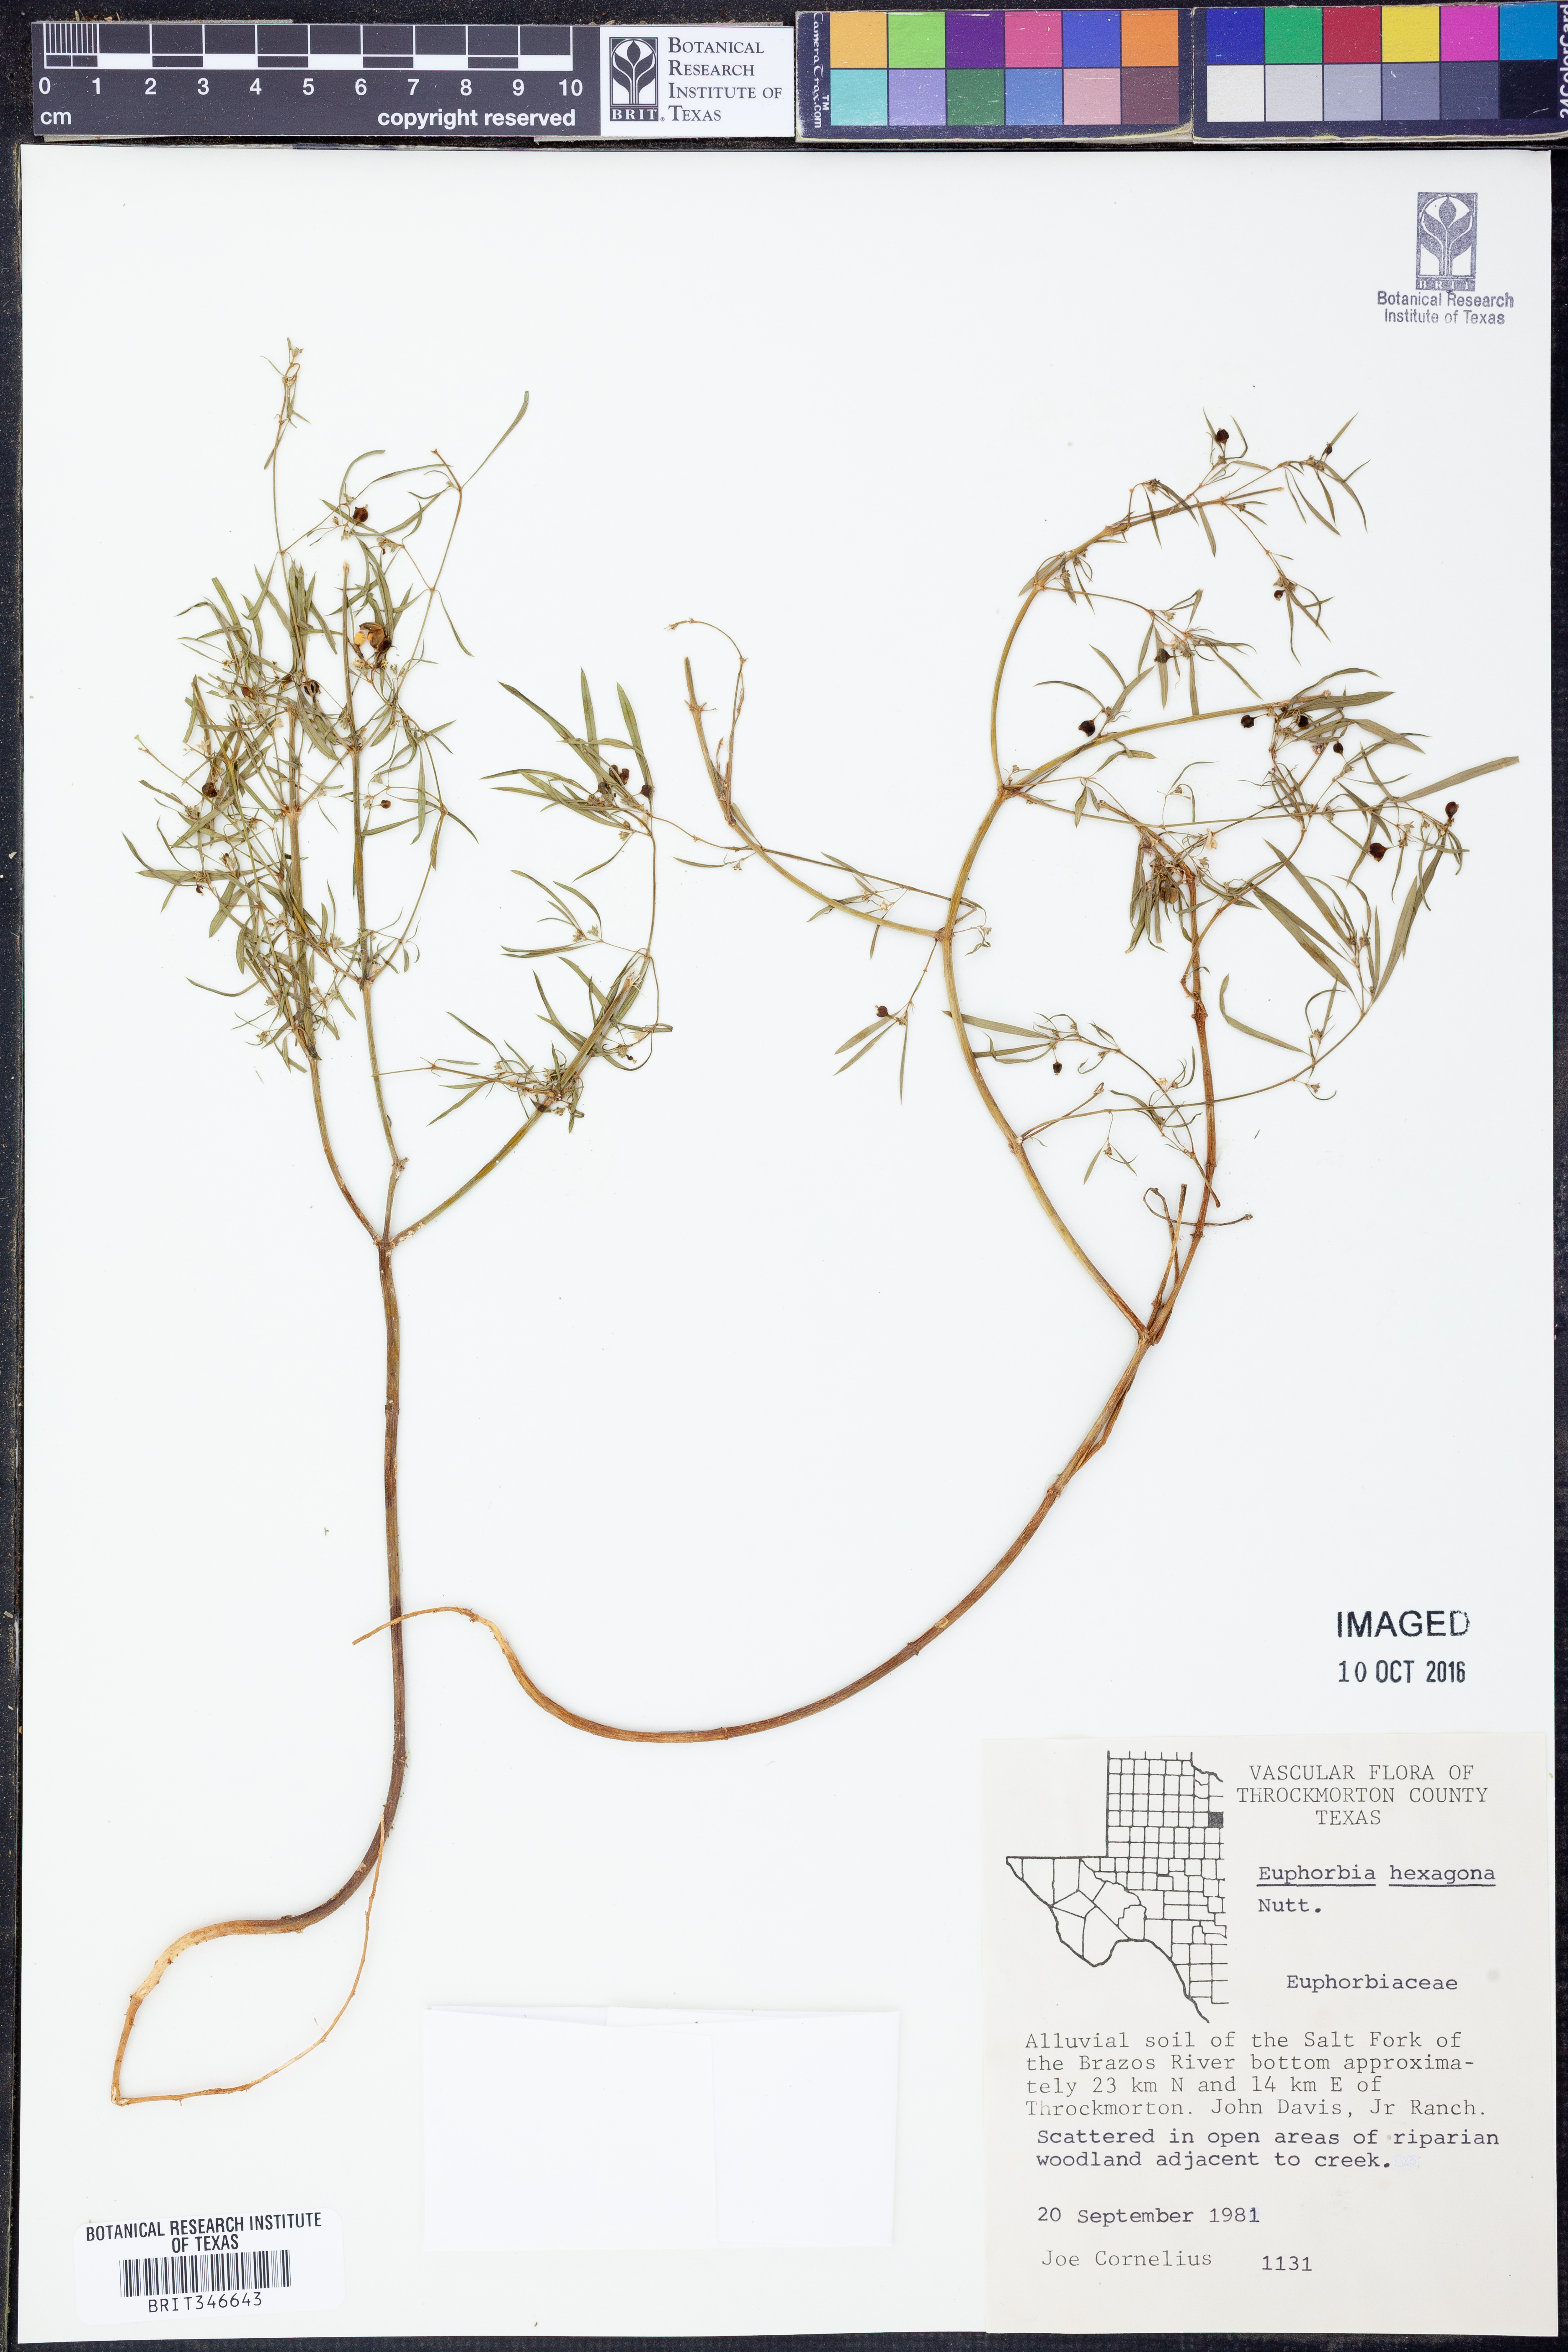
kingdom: Plantae
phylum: Tracheophyta
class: Magnoliopsida
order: Malpighiales
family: Euphorbiaceae
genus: Euphorbia
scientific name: Euphorbia hexagona
